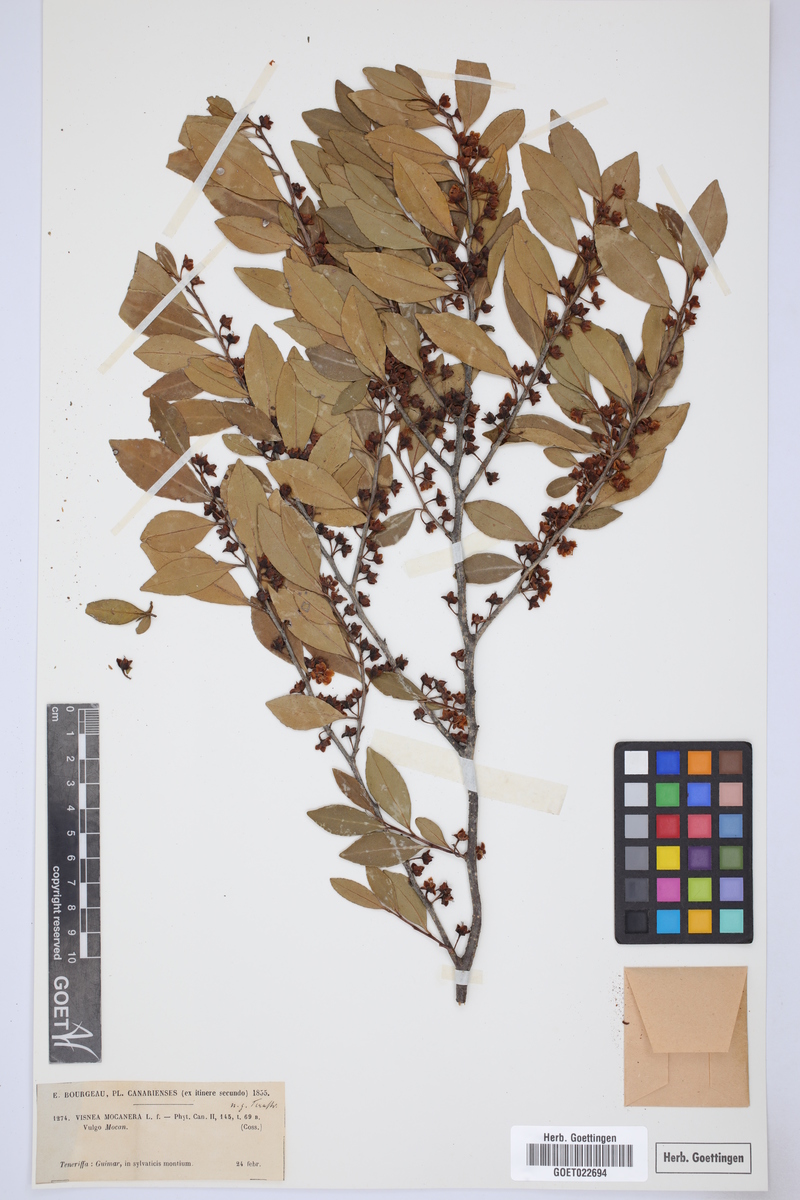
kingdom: Plantae
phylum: Tracheophyta
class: Magnoliopsida
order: Ericales
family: Pentaphylacaceae
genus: Visnea
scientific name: Visnea mocanera
